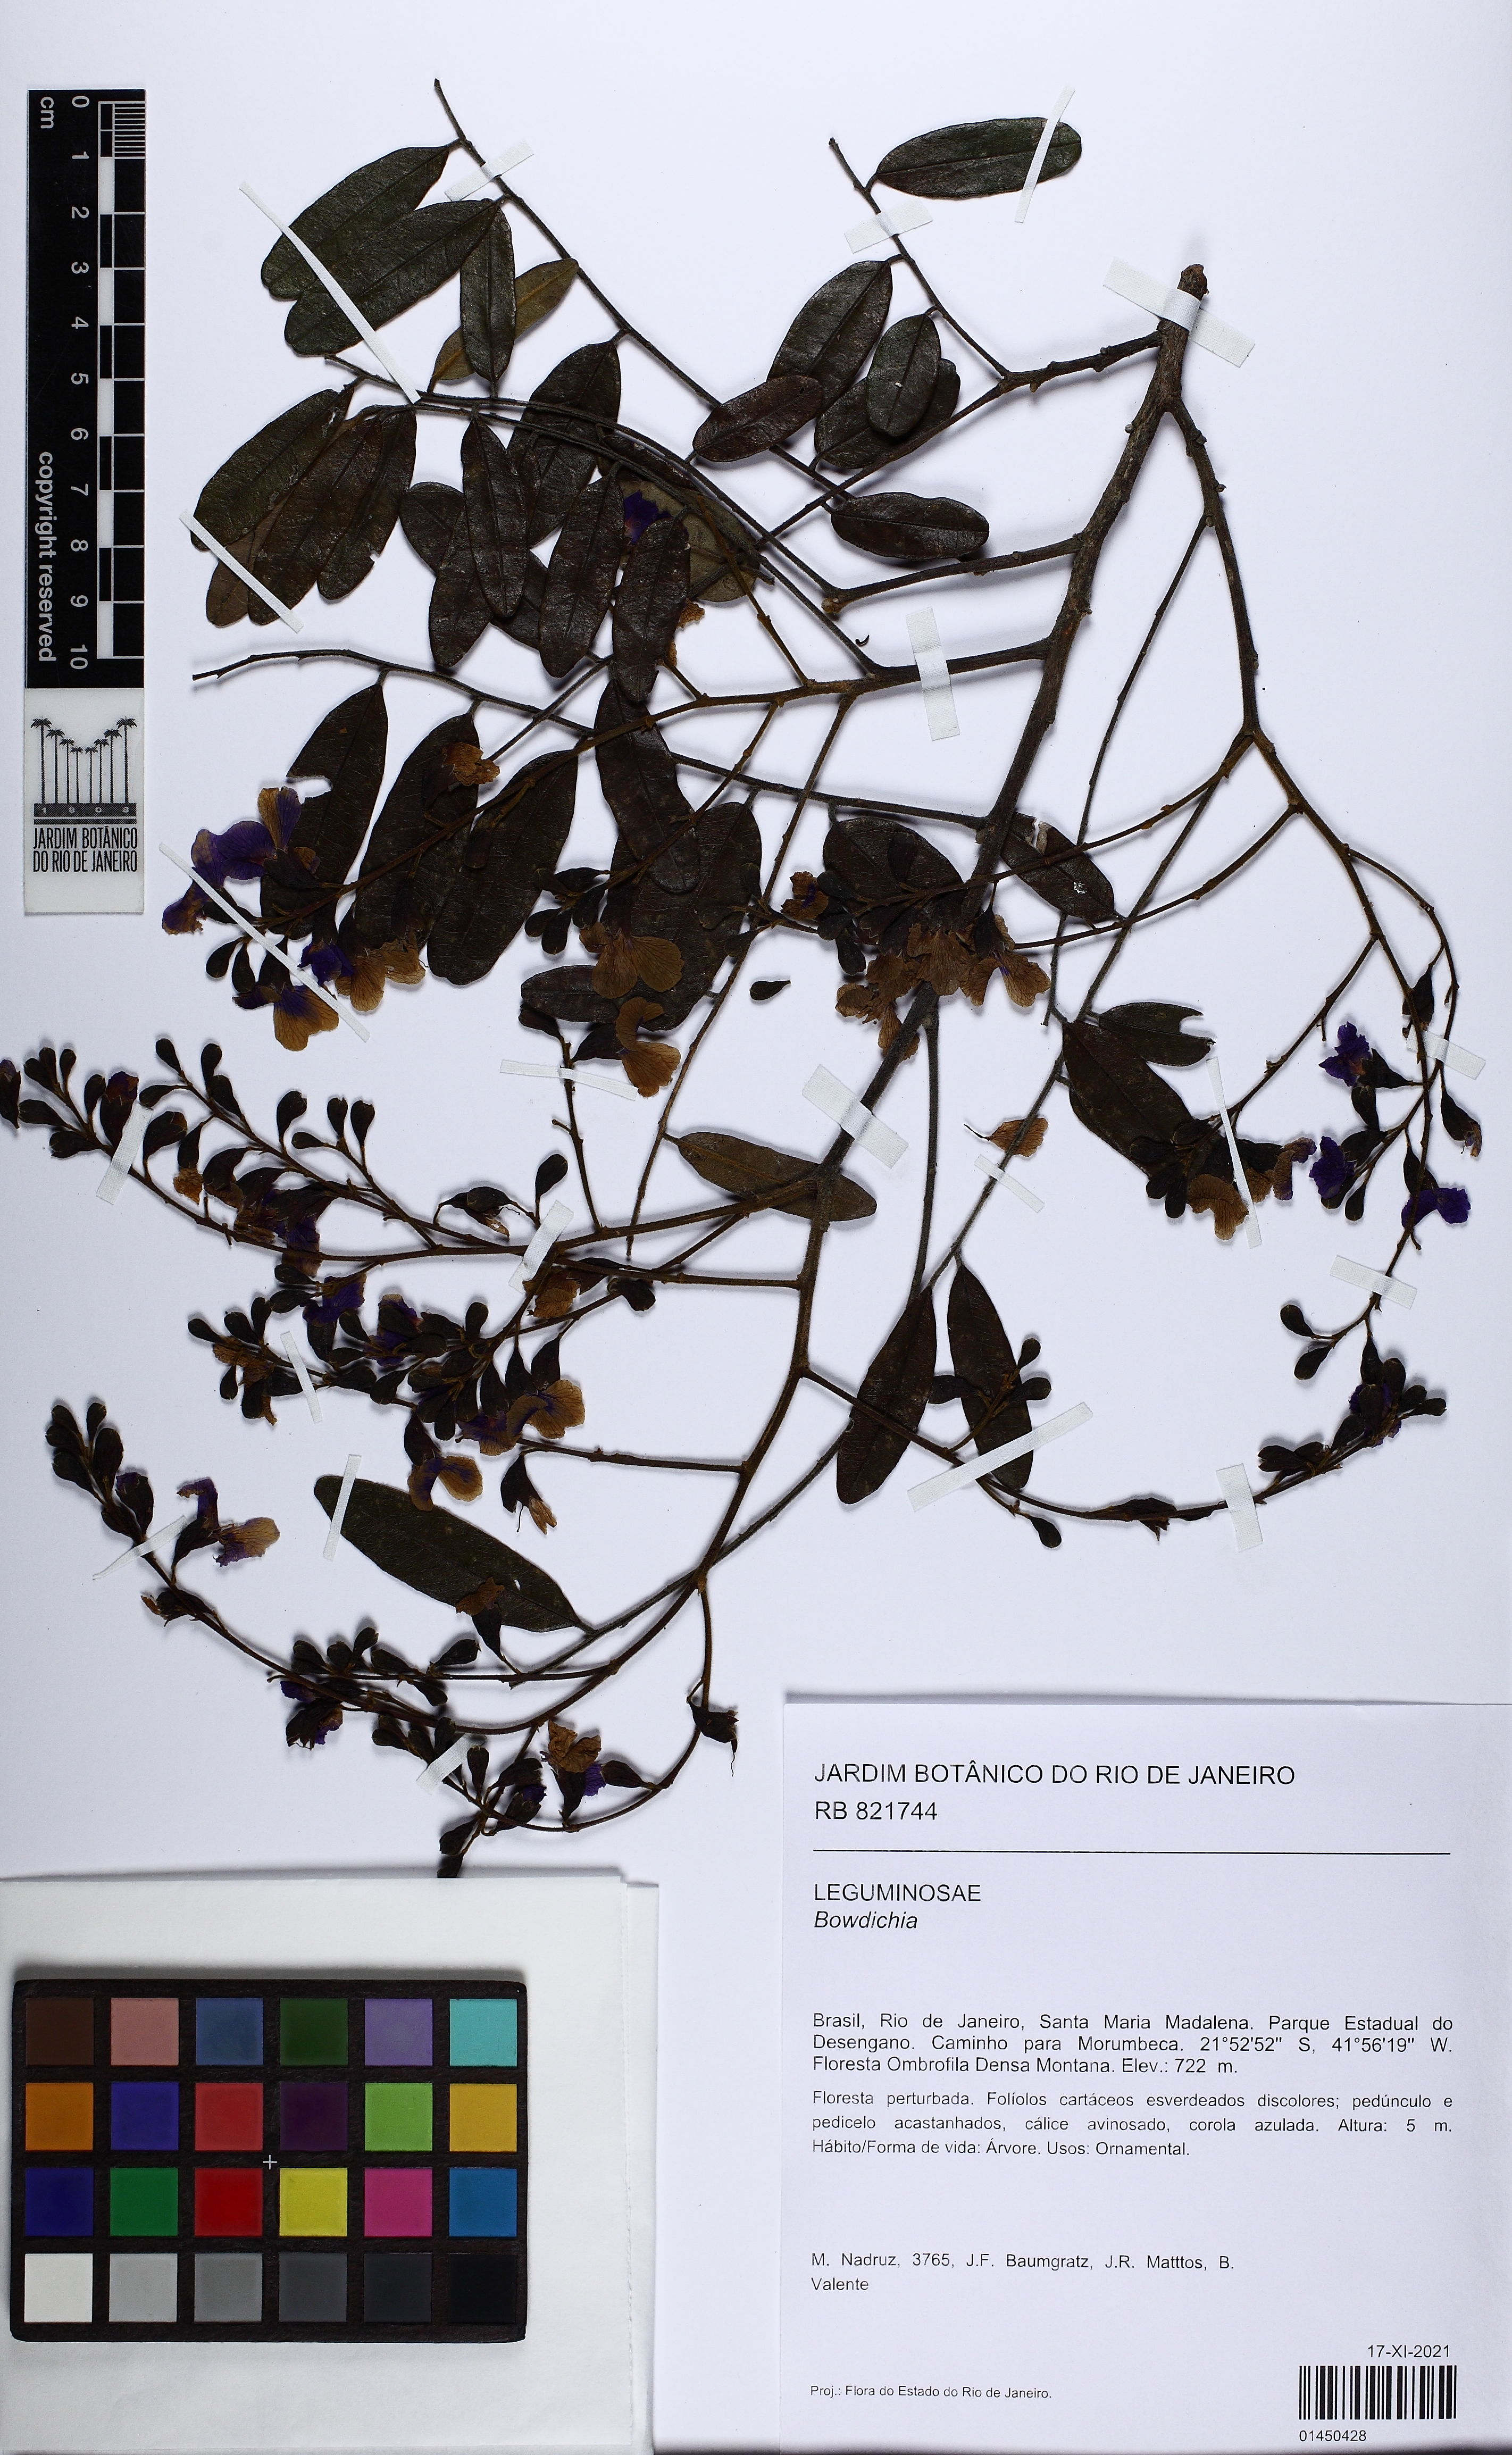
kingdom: Plantae
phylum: Tracheophyta
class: Magnoliopsida
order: Fabales
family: Fabaceae
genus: Bowdichia
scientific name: Bowdichia
